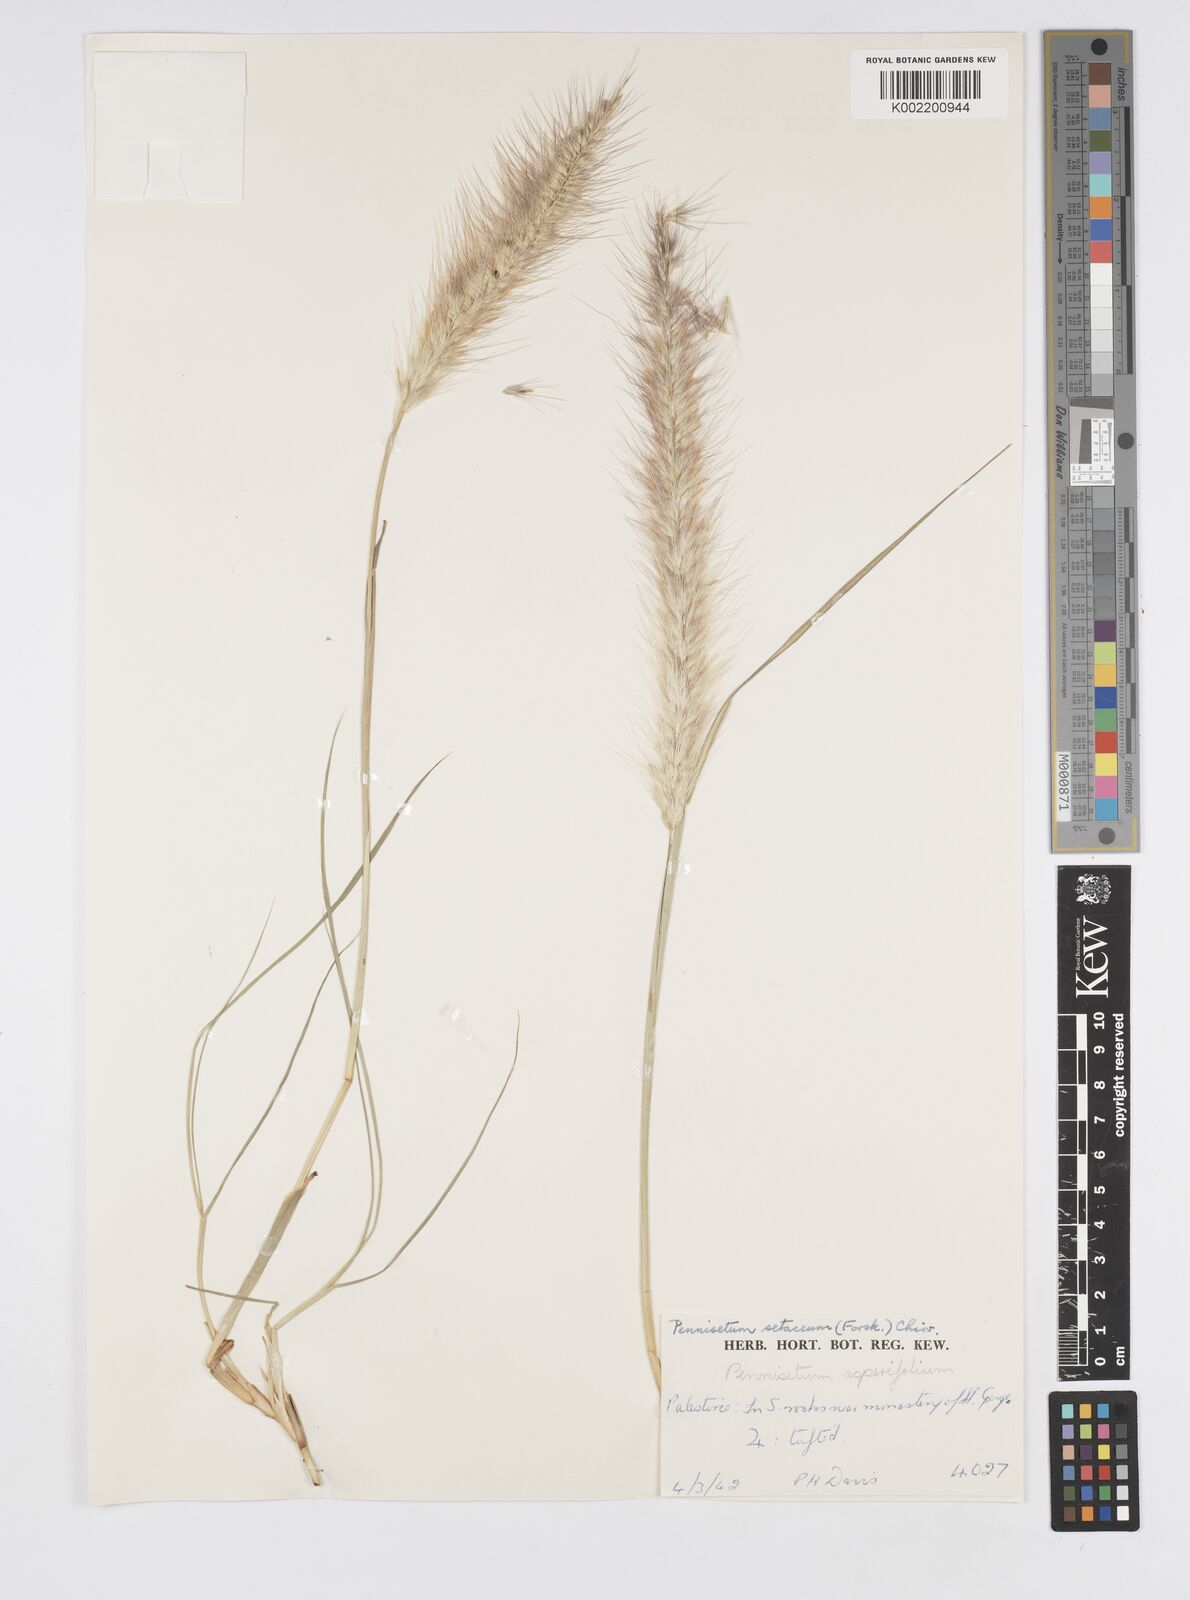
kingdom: Plantae
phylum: Tracheophyta
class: Liliopsida
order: Poales
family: Poaceae
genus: Cenchrus
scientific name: Cenchrus setaceus
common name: Crimson fountaingrass
